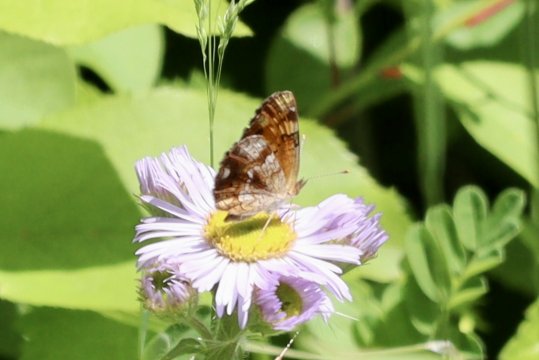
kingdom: Animalia
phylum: Arthropoda
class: Insecta
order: Lepidoptera
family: Nymphalidae
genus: Phyciodes
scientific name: Phyciodes
